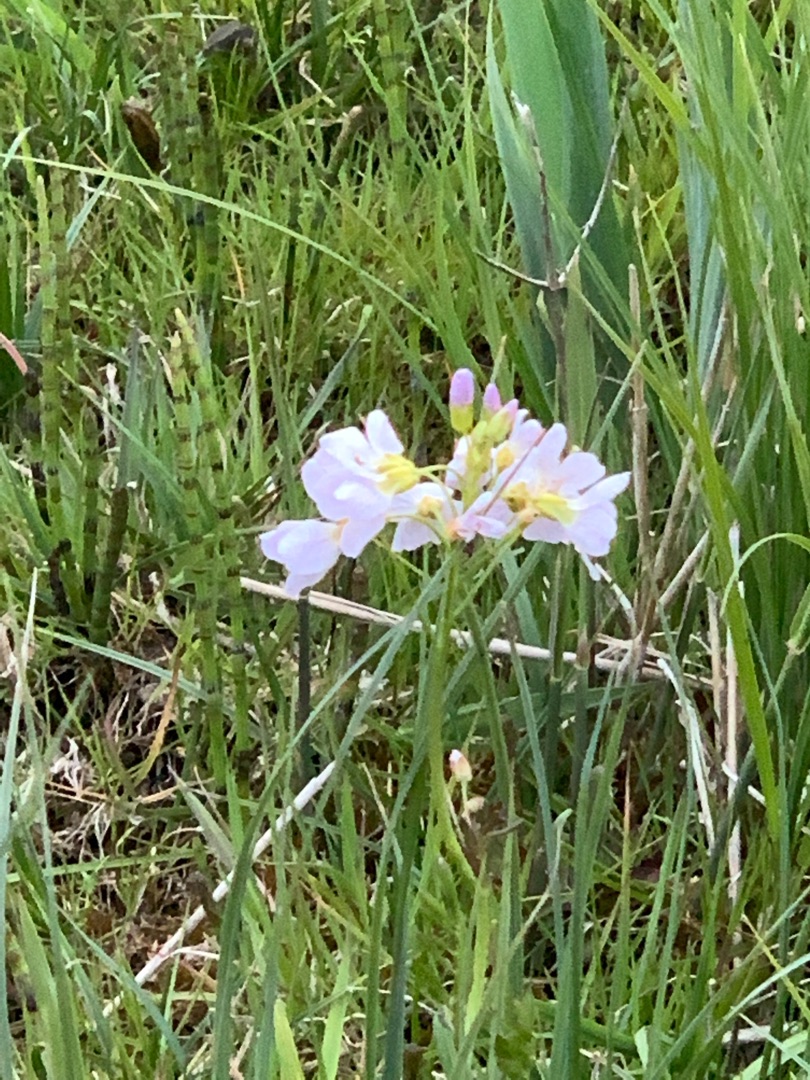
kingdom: Plantae
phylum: Tracheophyta
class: Magnoliopsida
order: Brassicales
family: Brassicaceae
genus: Cardamine
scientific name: Cardamine pratensis
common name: Engkarse
